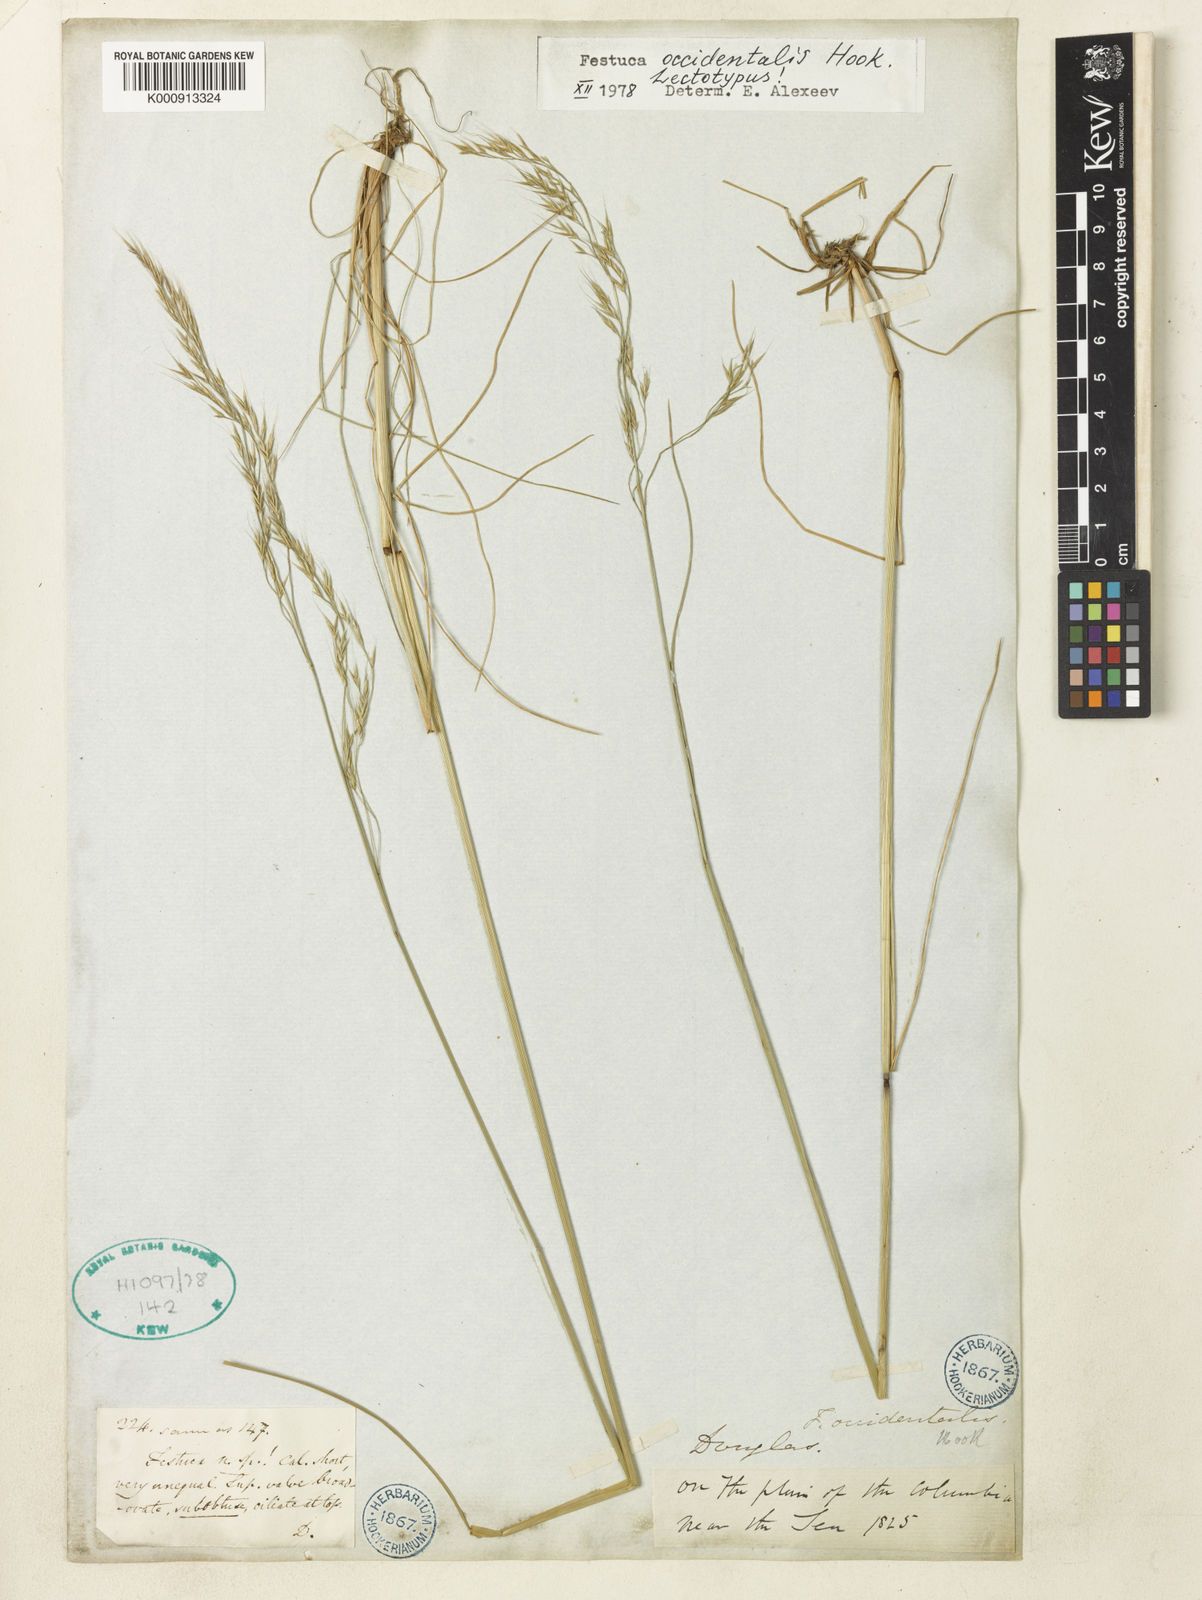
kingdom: Plantae
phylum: Tracheophyta
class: Liliopsida
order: Poales
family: Poaceae
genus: Festuca
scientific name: Festuca occidentalis
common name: Western fescue
